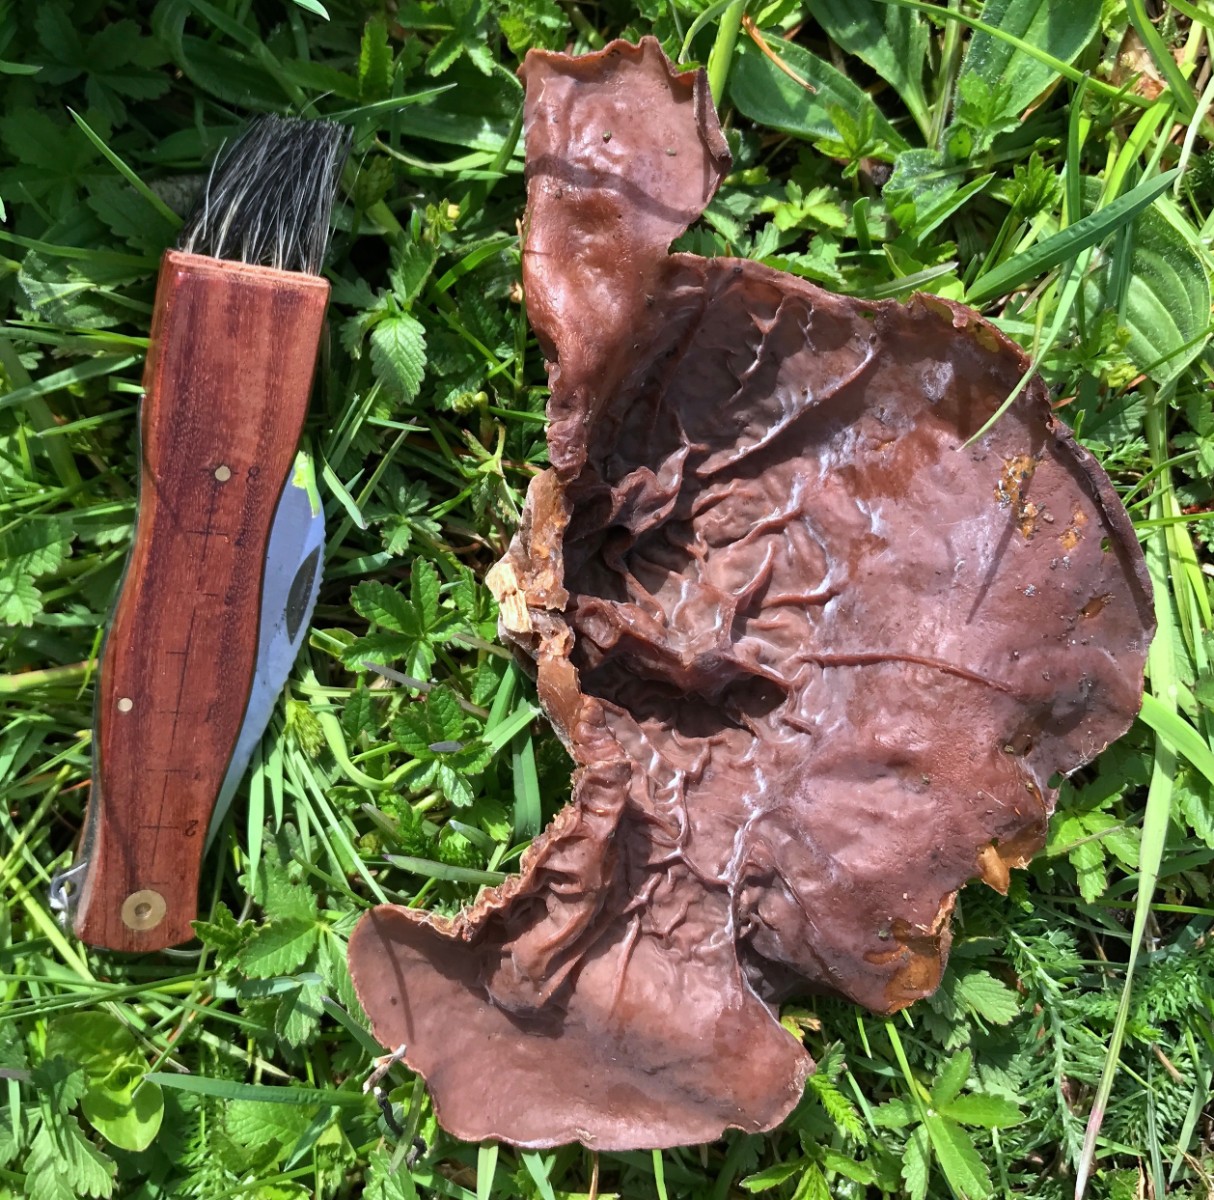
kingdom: Fungi
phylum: Basidiomycota
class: Agaricomycetes
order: Auriculariales
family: Auriculariaceae
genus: Auricularia
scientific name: Auricularia auricula-judae
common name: almindelig judasøre
